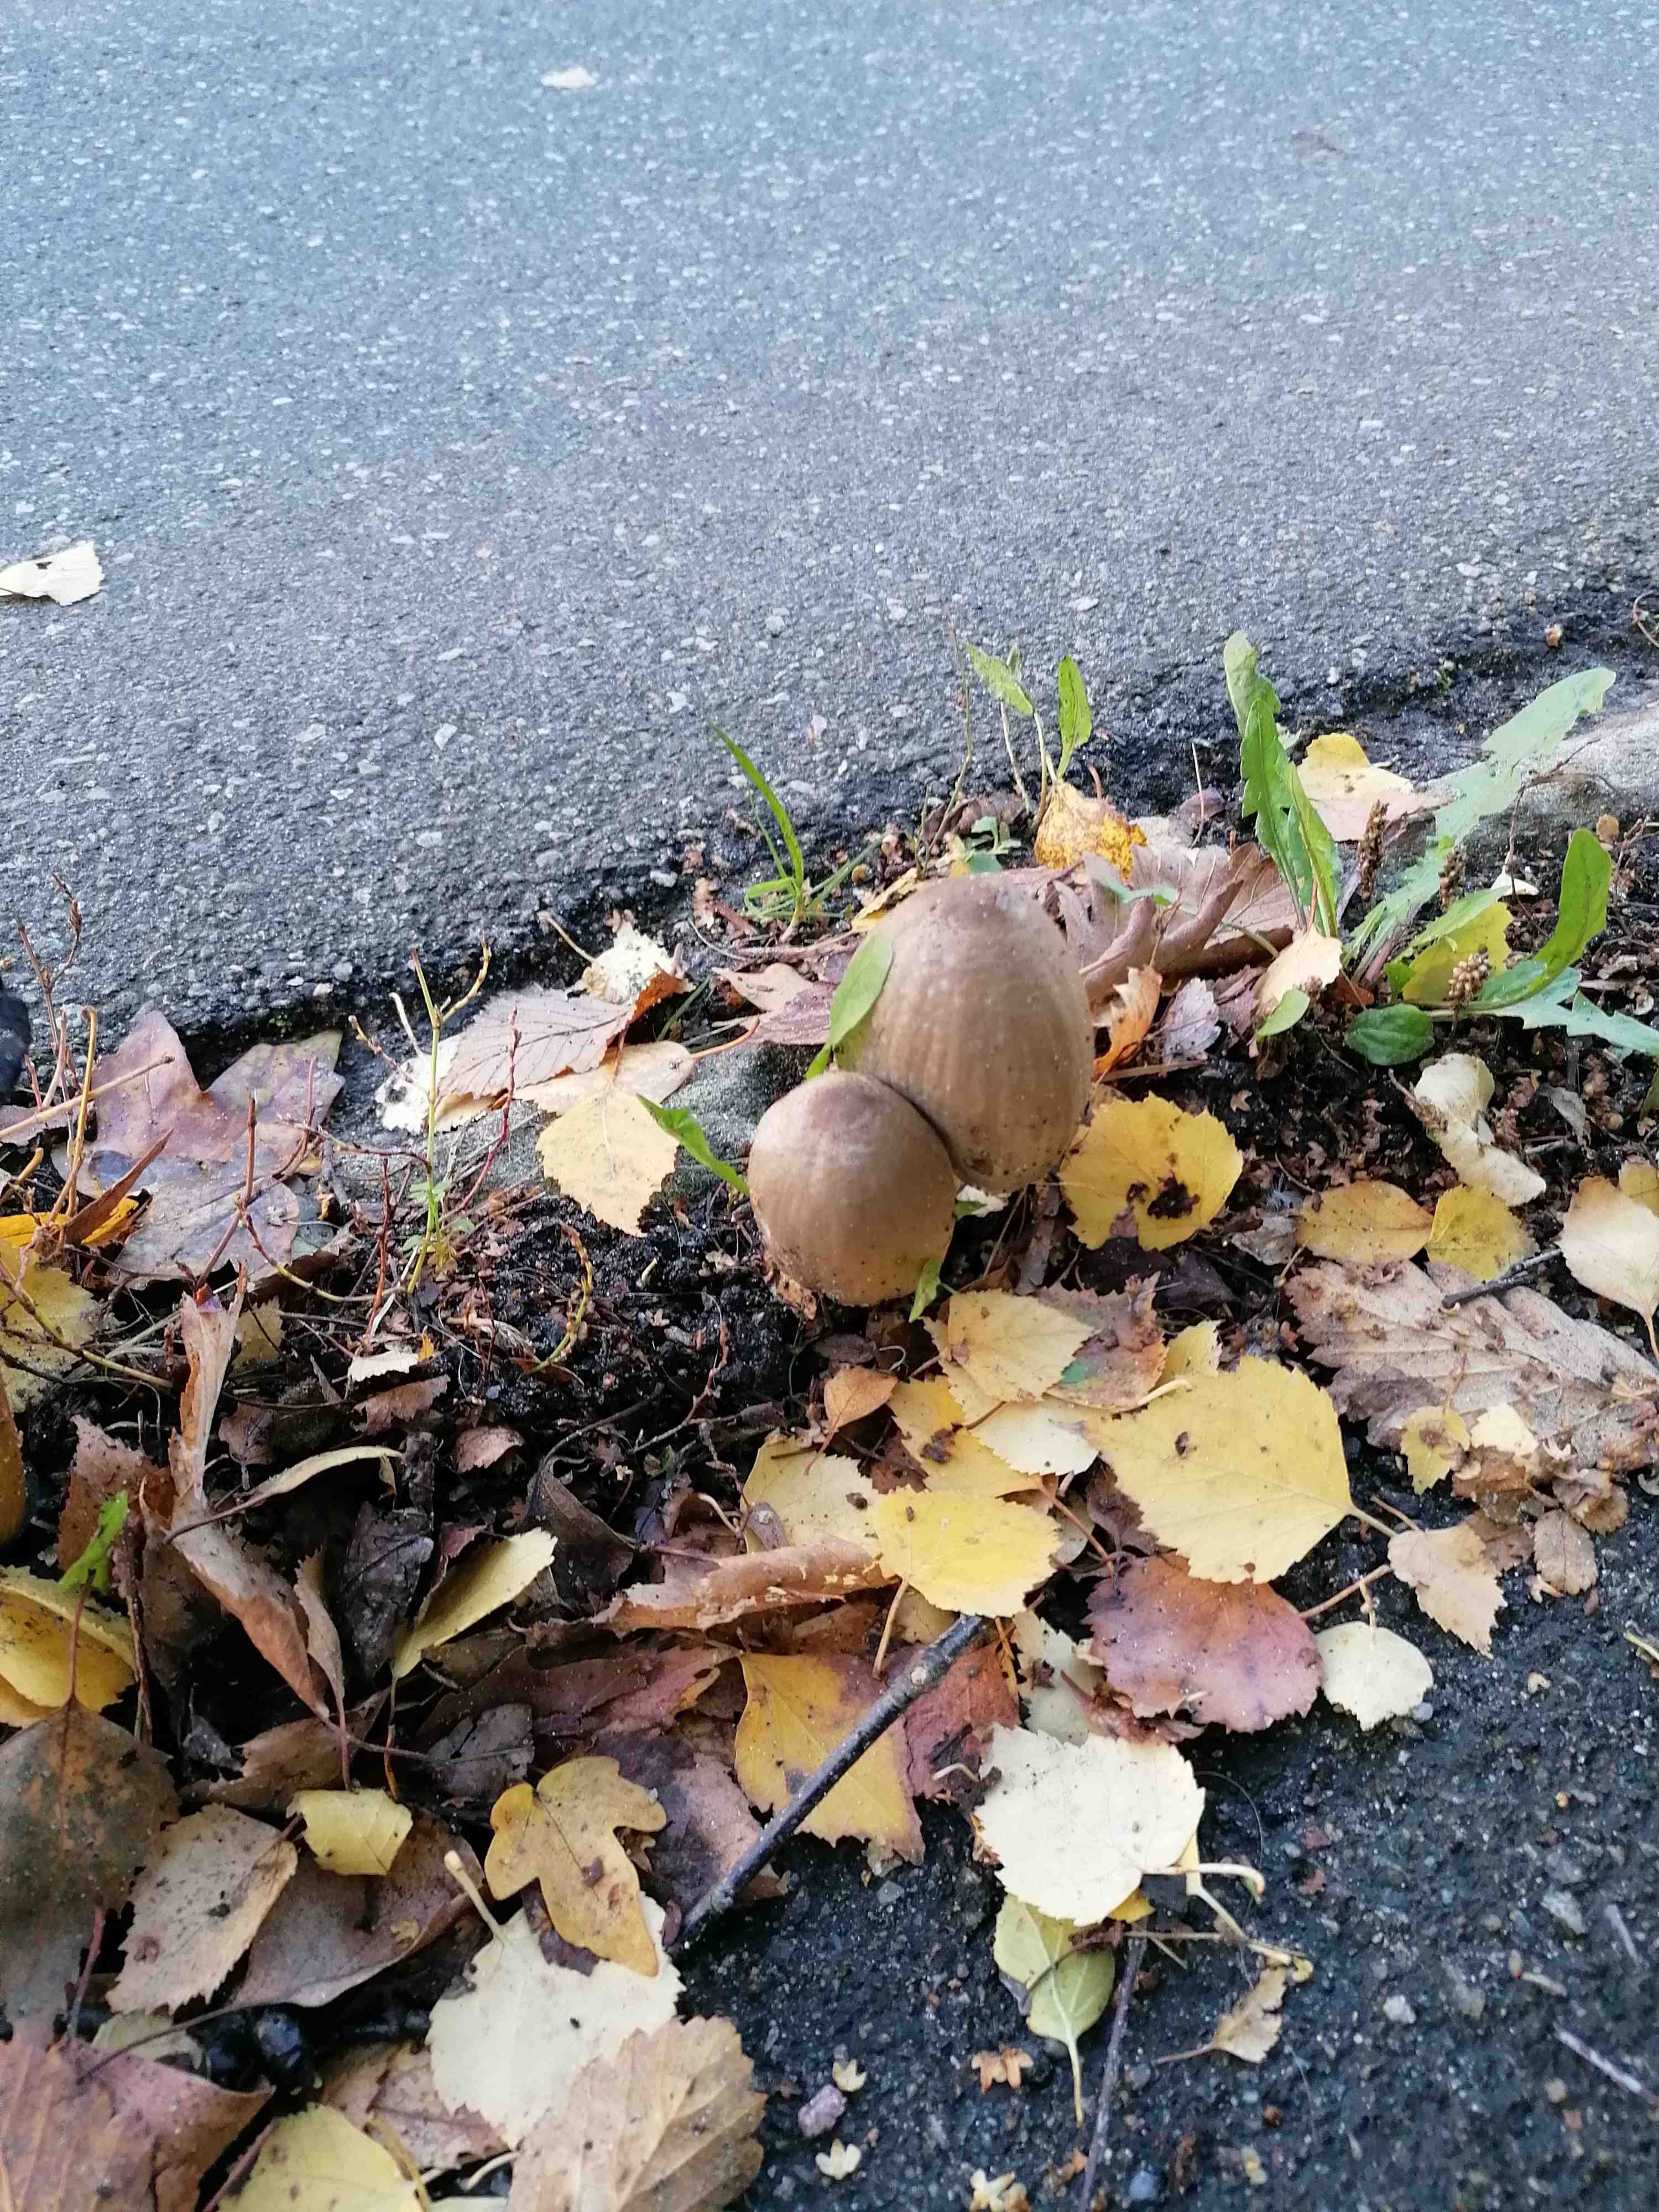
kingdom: Fungi
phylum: Basidiomycota
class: Agaricomycetes
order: Agaricales
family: Psathyrellaceae
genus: Coprinopsis
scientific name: Coprinopsis
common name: blækhat
